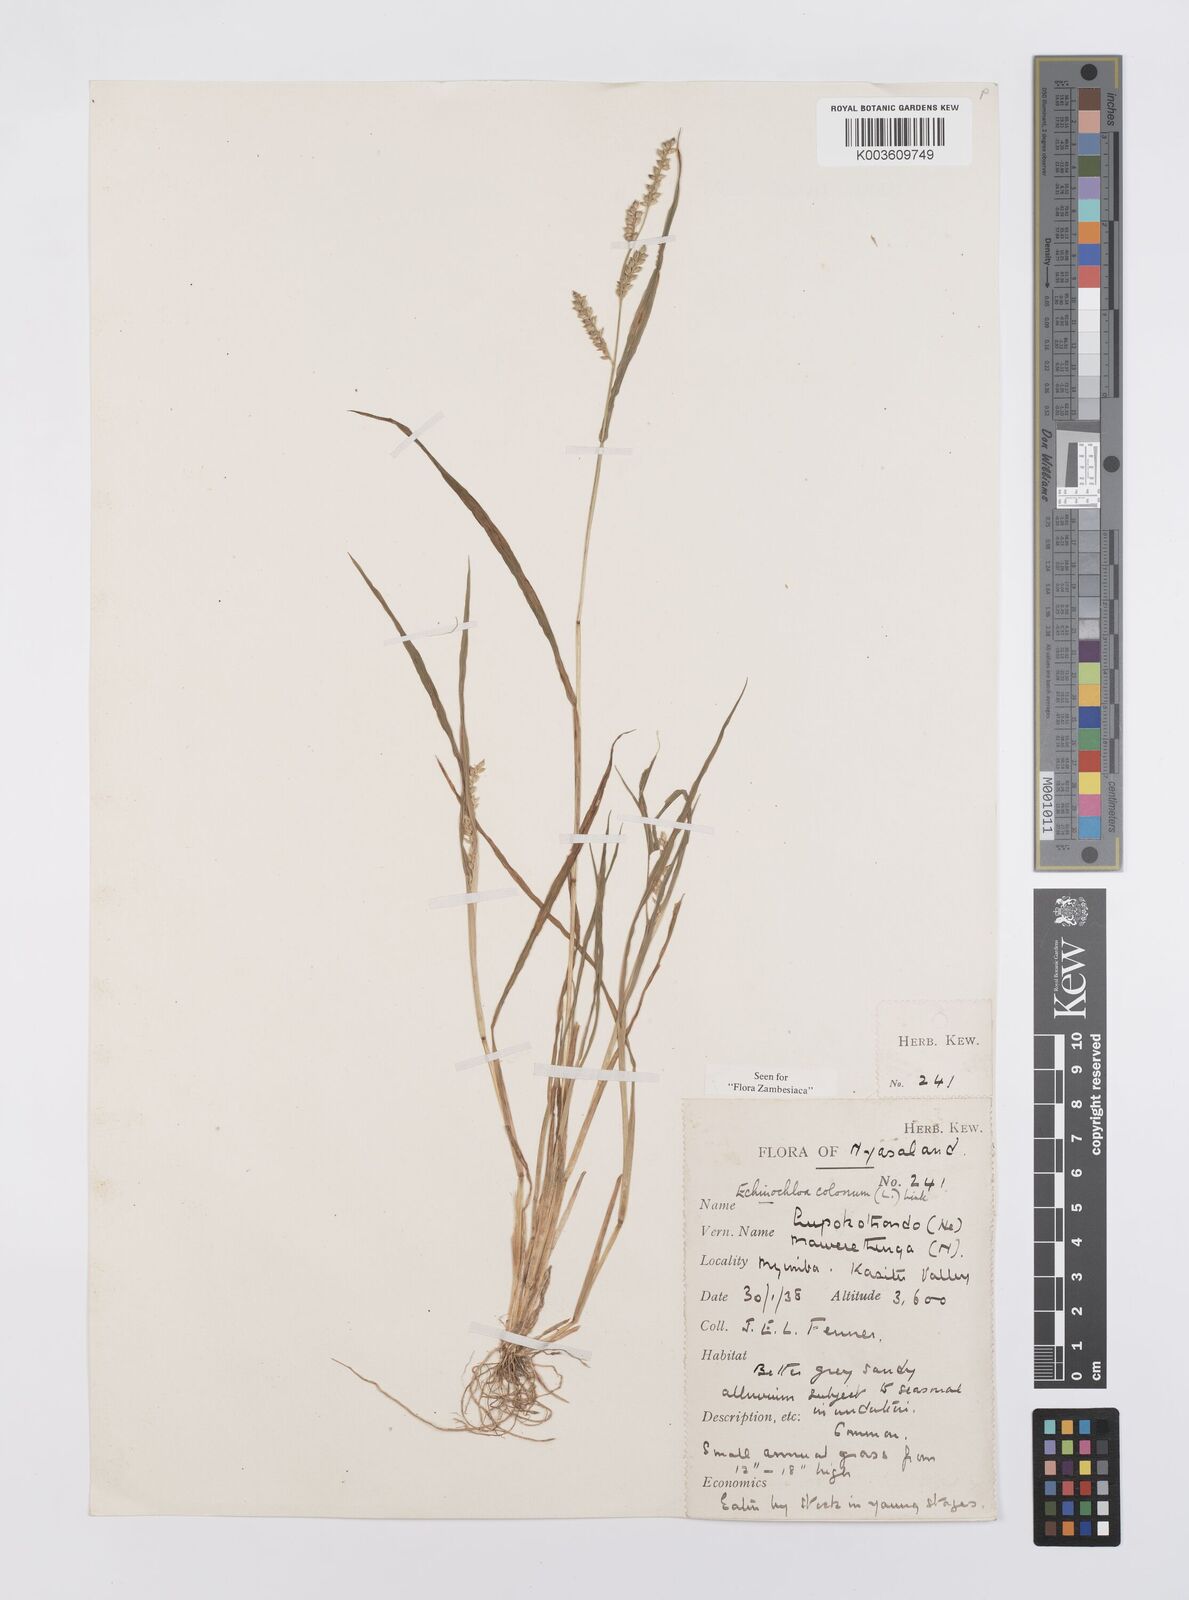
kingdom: Plantae
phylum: Tracheophyta
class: Liliopsida
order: Poales
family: Poaceae
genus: Echinochloa
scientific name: Echinochloa colonum
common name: Jungle rice
